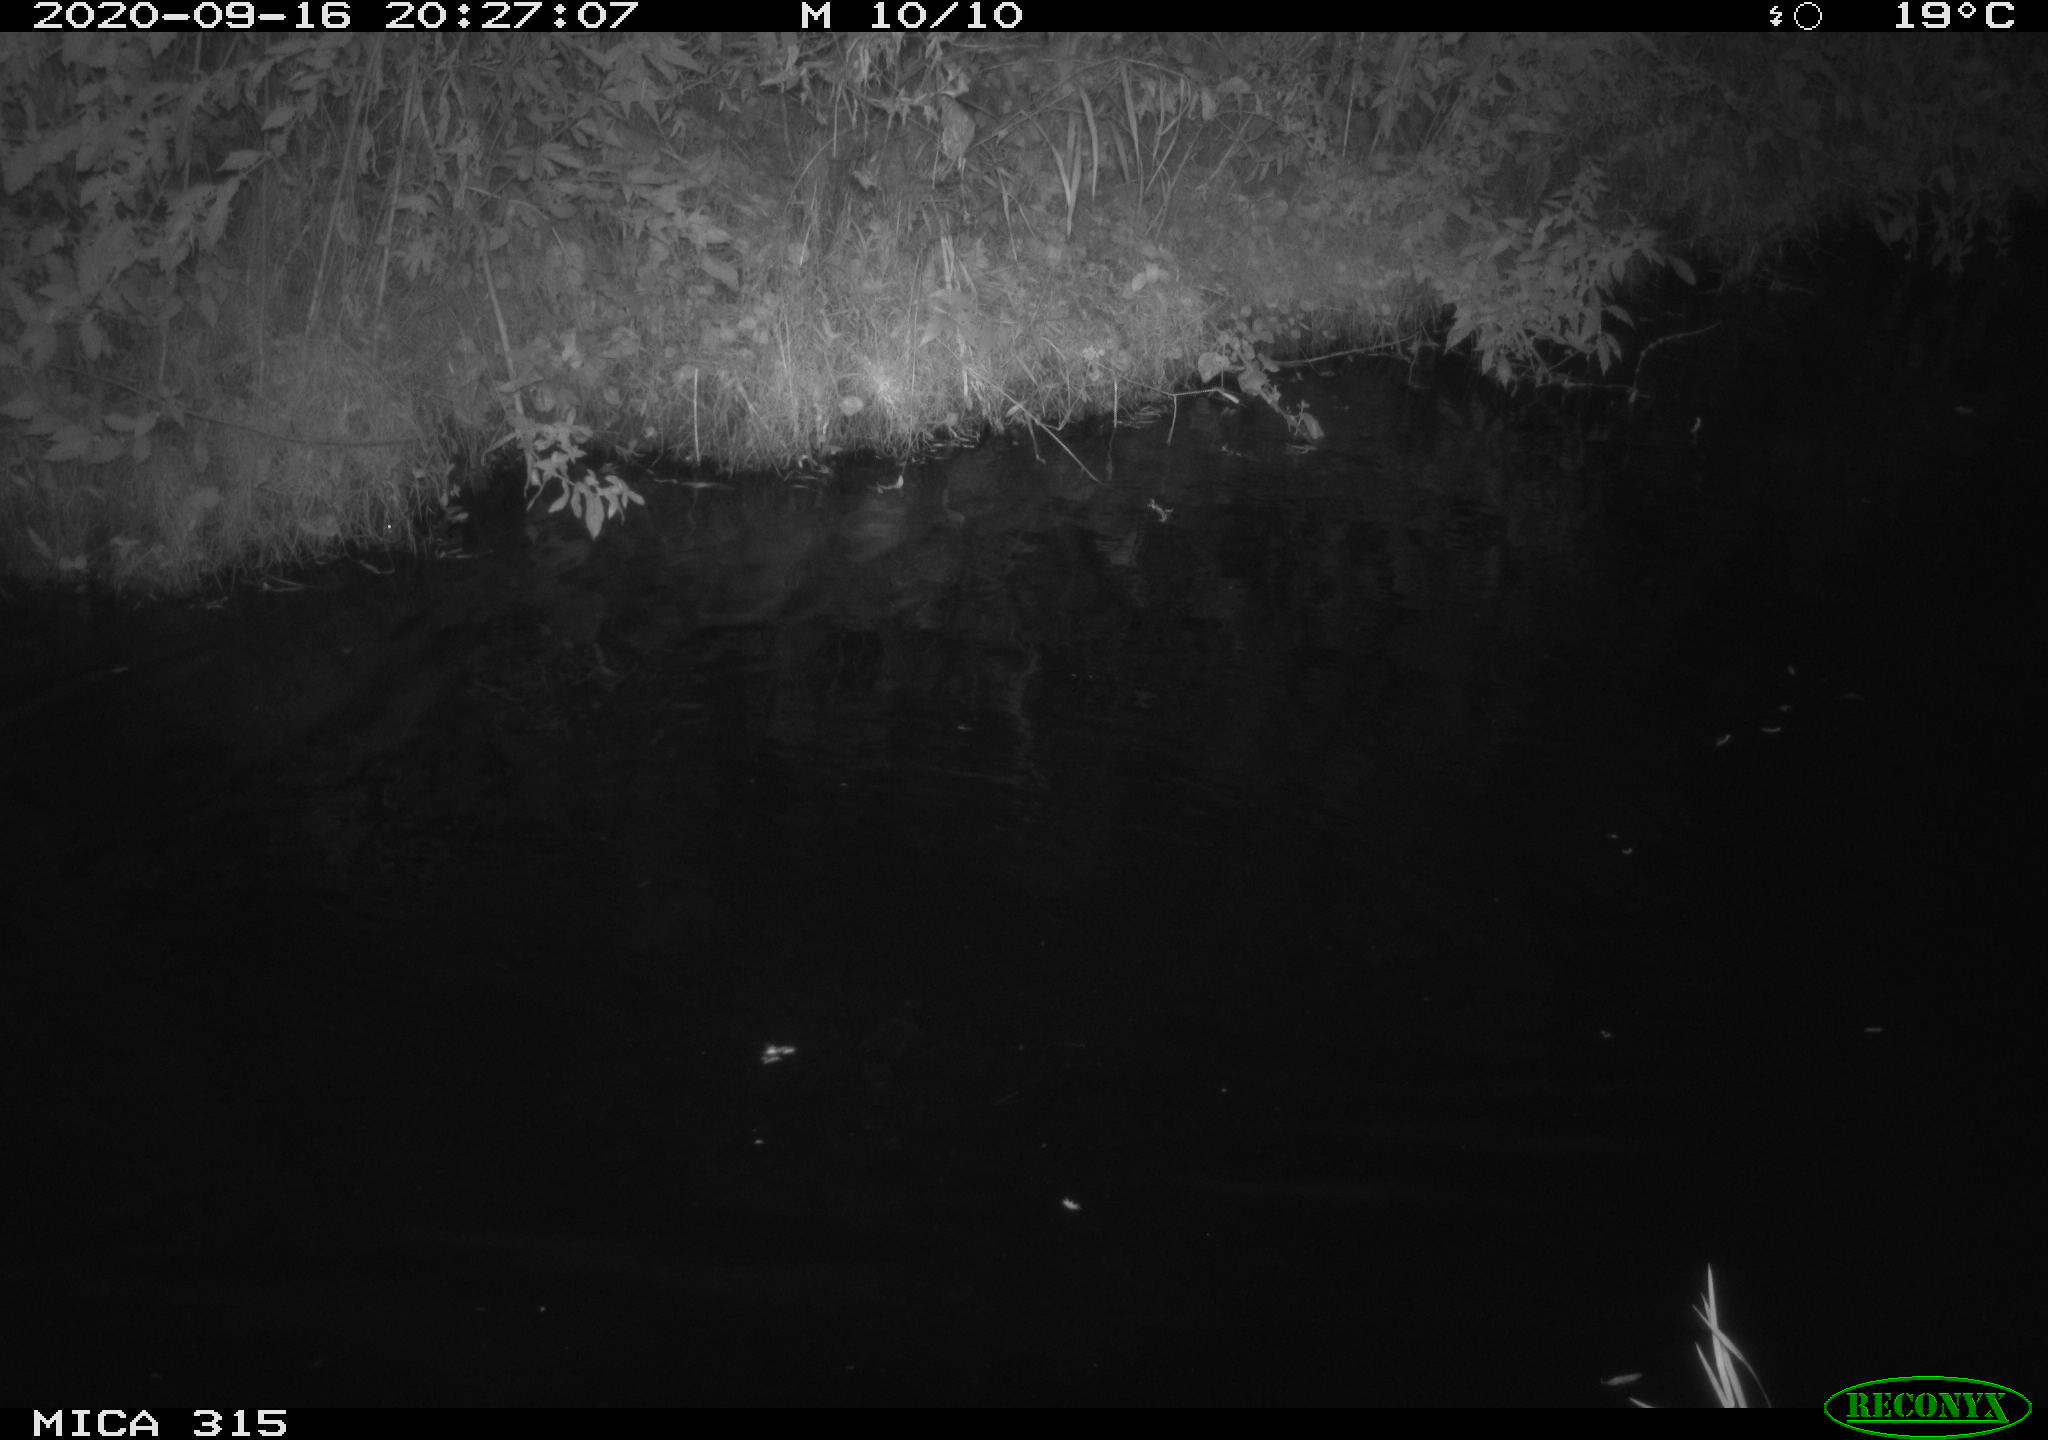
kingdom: Animalia
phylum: Chordata
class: Aves
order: Anseriformes
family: Anatidae
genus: Anas
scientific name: Anas platyrhynchos
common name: Mallard
